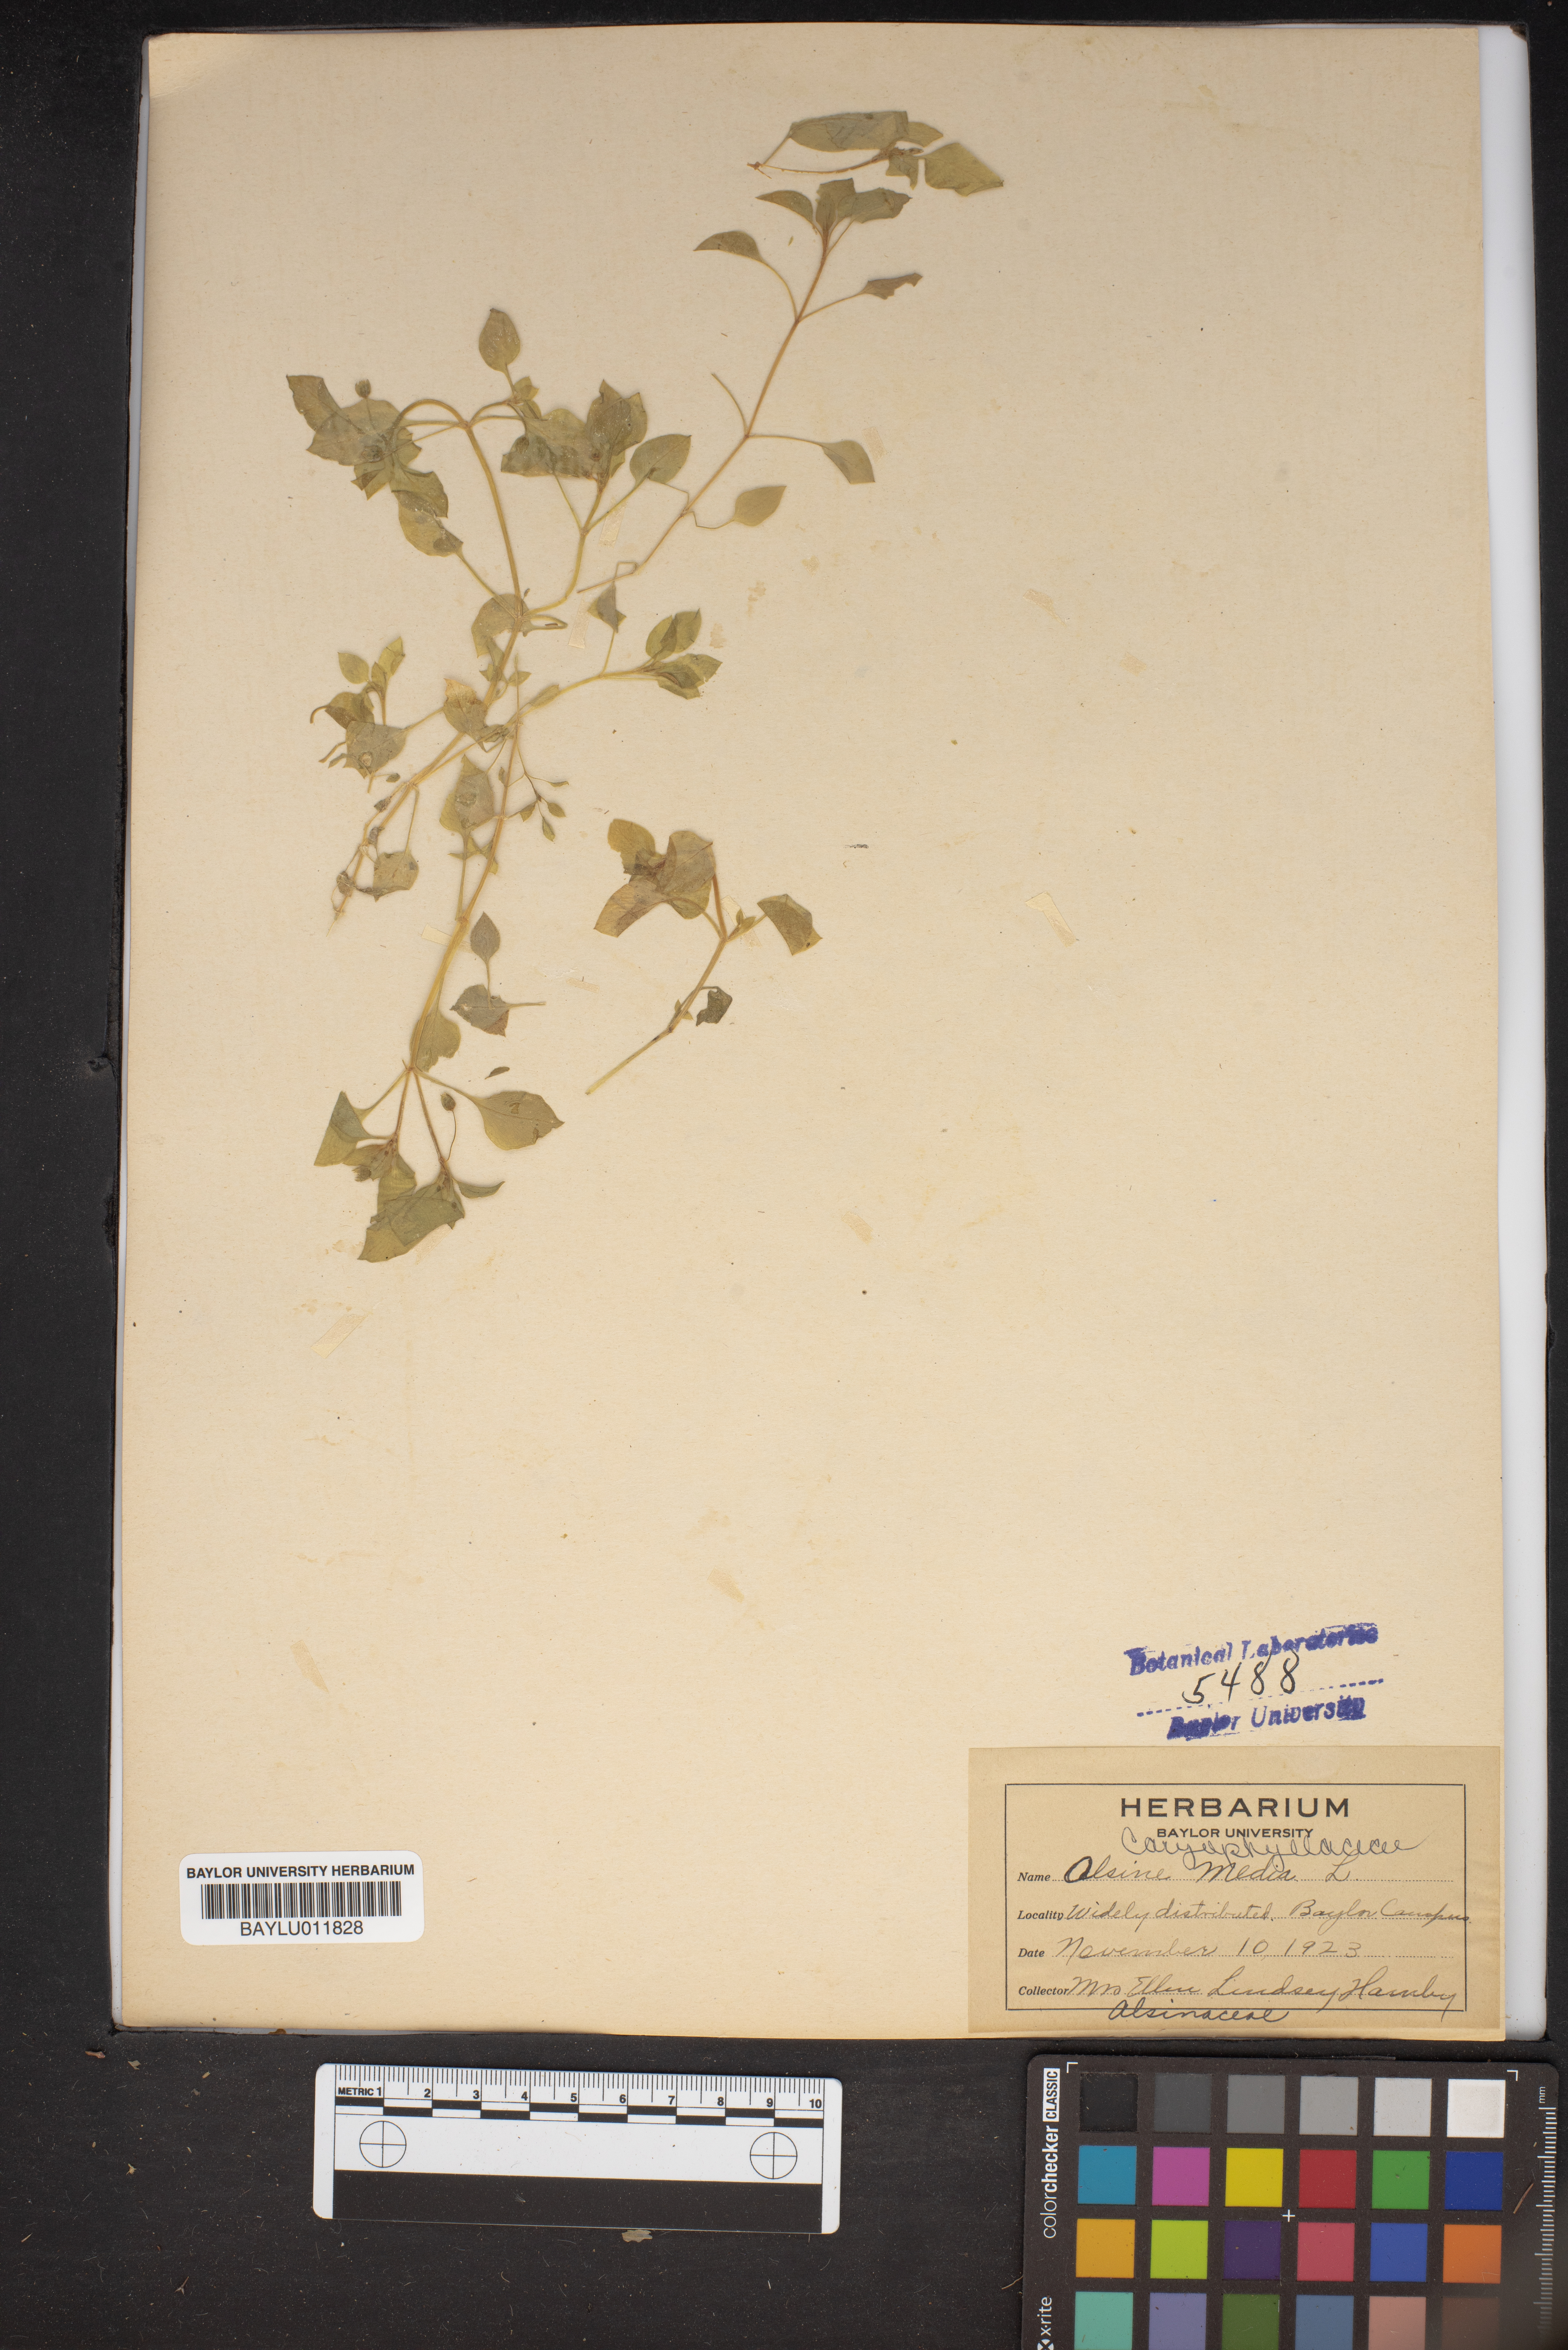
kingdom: Plantae
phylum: Tracheophyta
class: Magnoliopsida
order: Caryophyllales
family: Caryophyllaceae
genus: Stellaria
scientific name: Stellaria media
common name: Common chickweed
